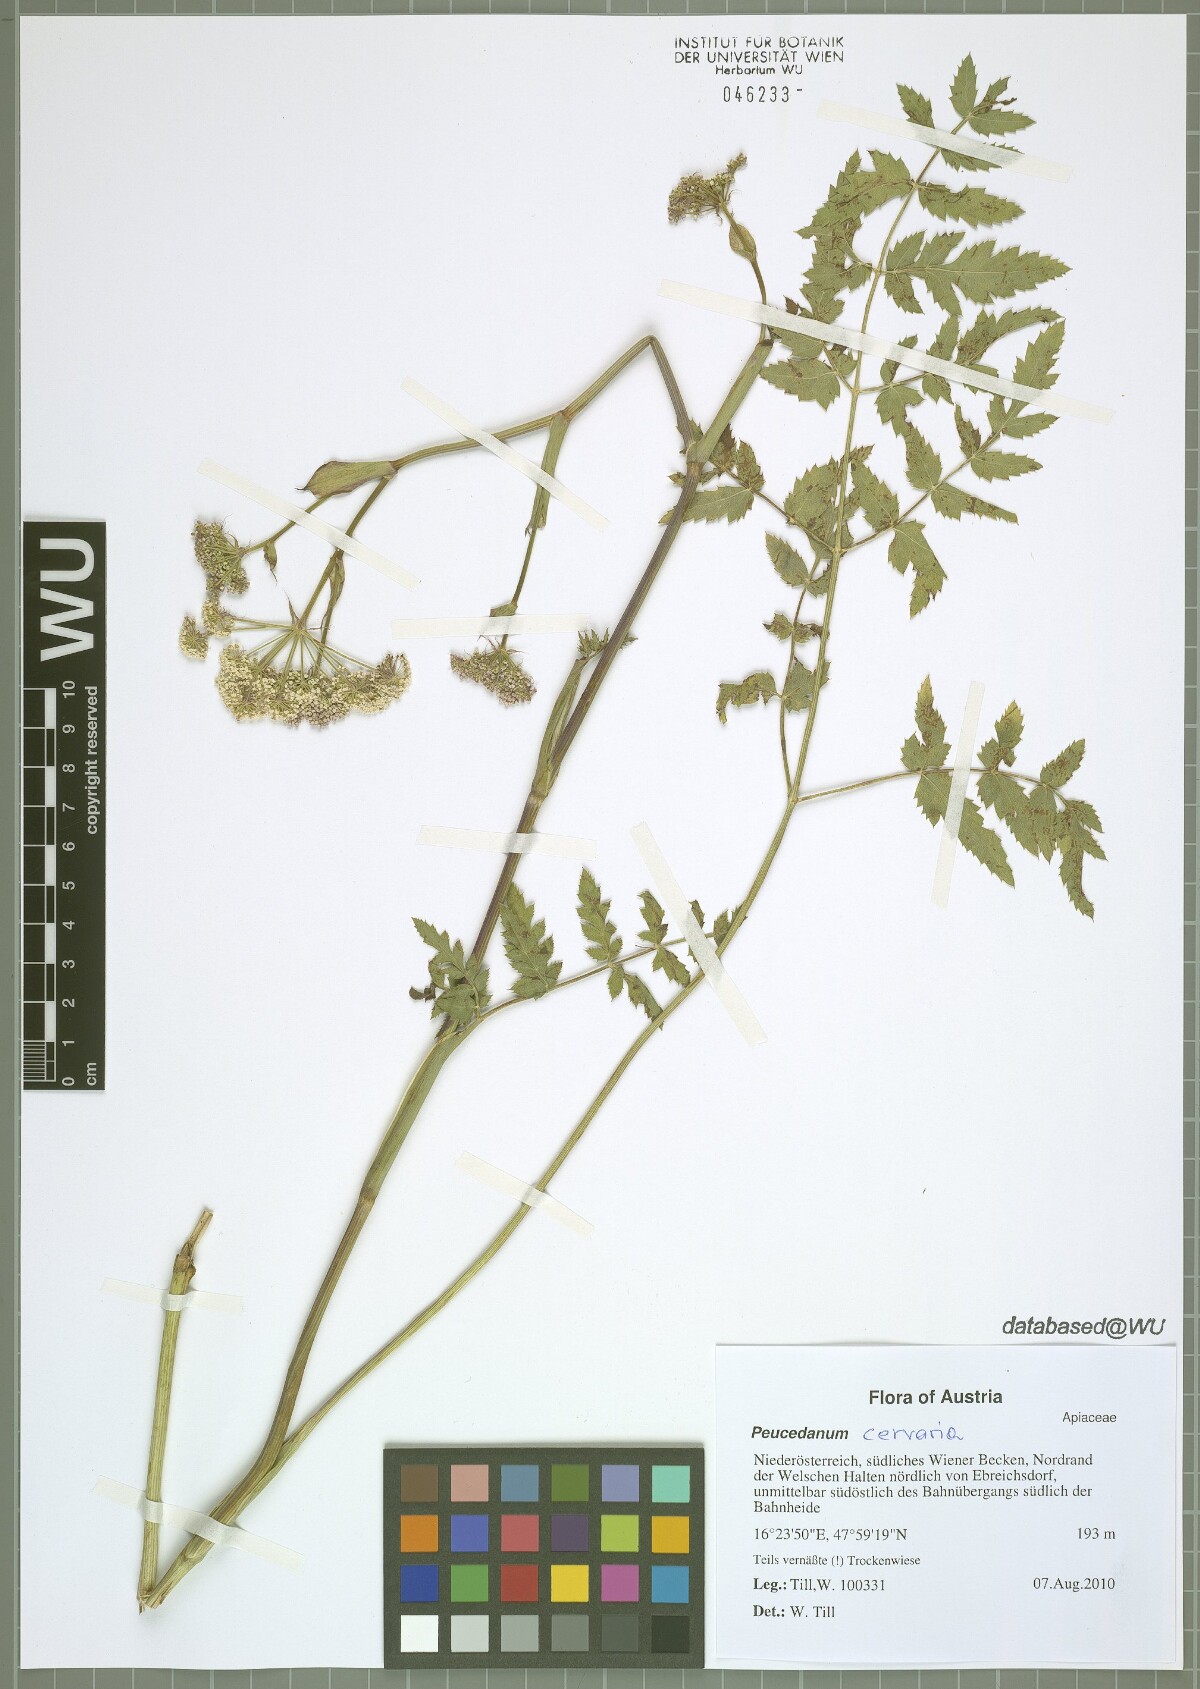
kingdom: Plantae
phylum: Tracheophyta
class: Magnoliopsida
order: Apiales
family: Apiaceae
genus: Cervaria
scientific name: Cervaria rivini
